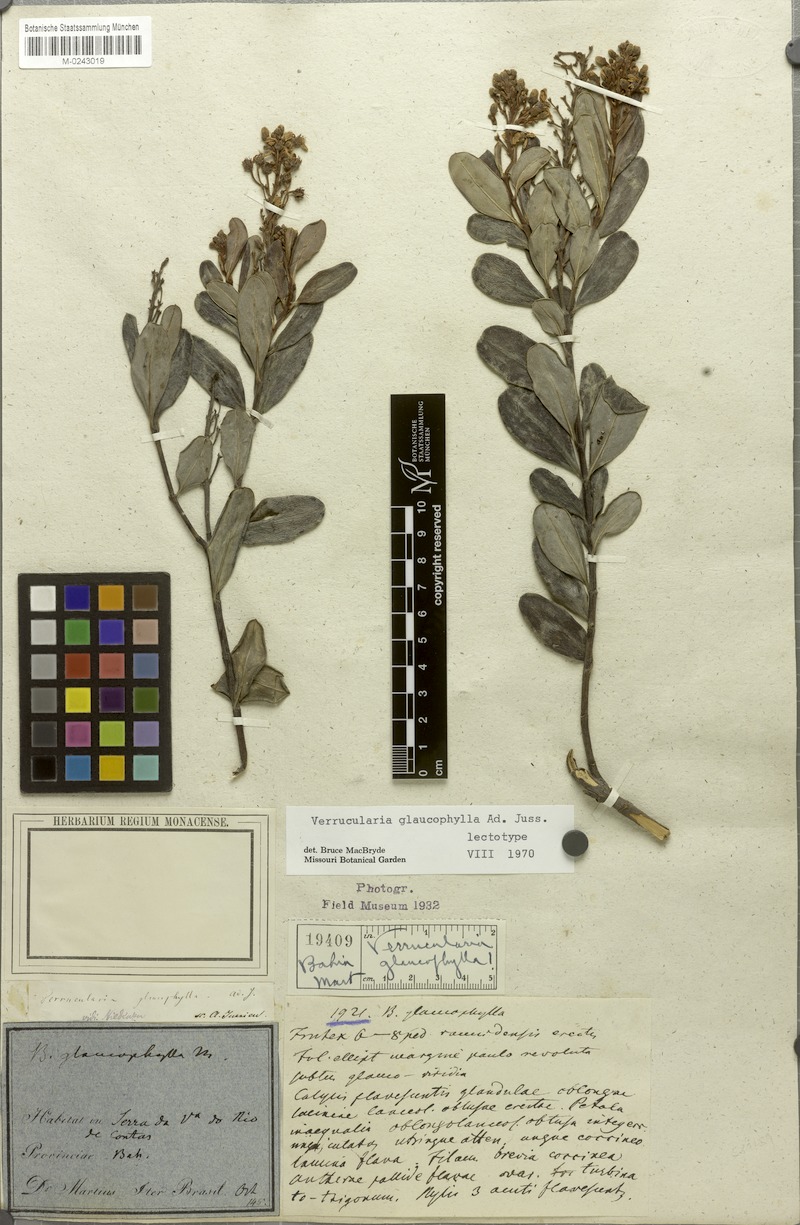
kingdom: Plantae
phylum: Tracheophyta
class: Magnoliopsida
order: Malpighiales
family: Malpighiaceae
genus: Verrucularina
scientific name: Verrucularina glaucophylla
